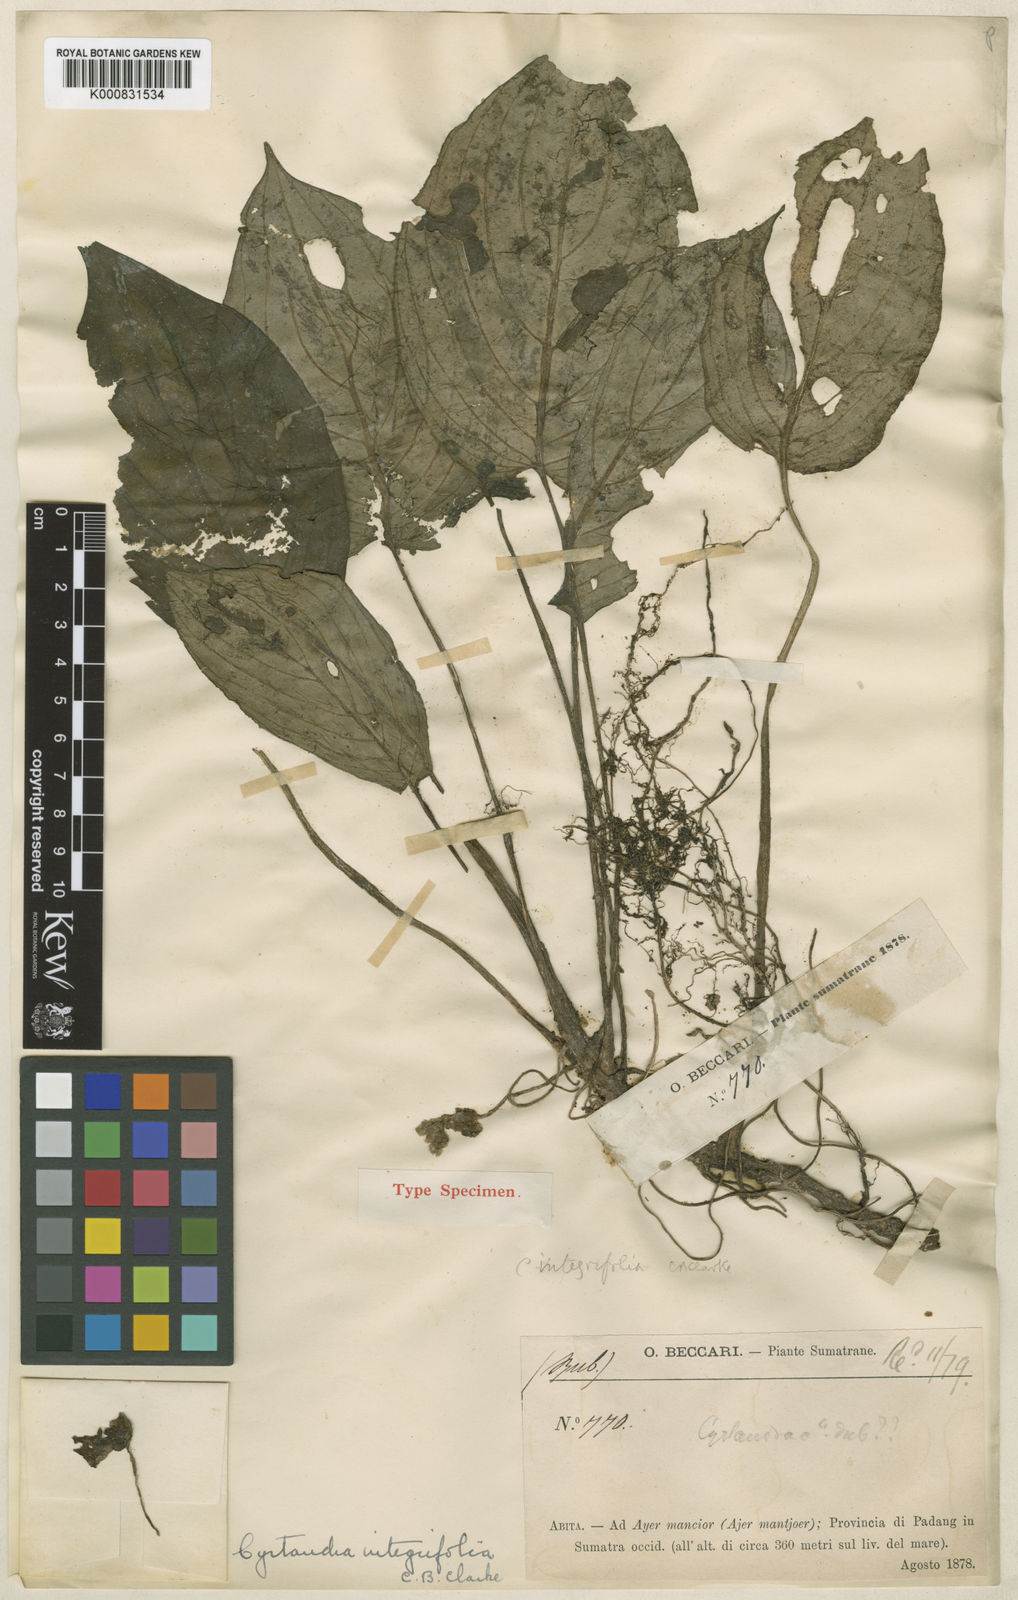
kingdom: Plantae
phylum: Tracheophyta
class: Magnoliopsida
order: Lamiales
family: Gesneriaceae
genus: Cyrtandra
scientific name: Cyrtandra integrifolia
